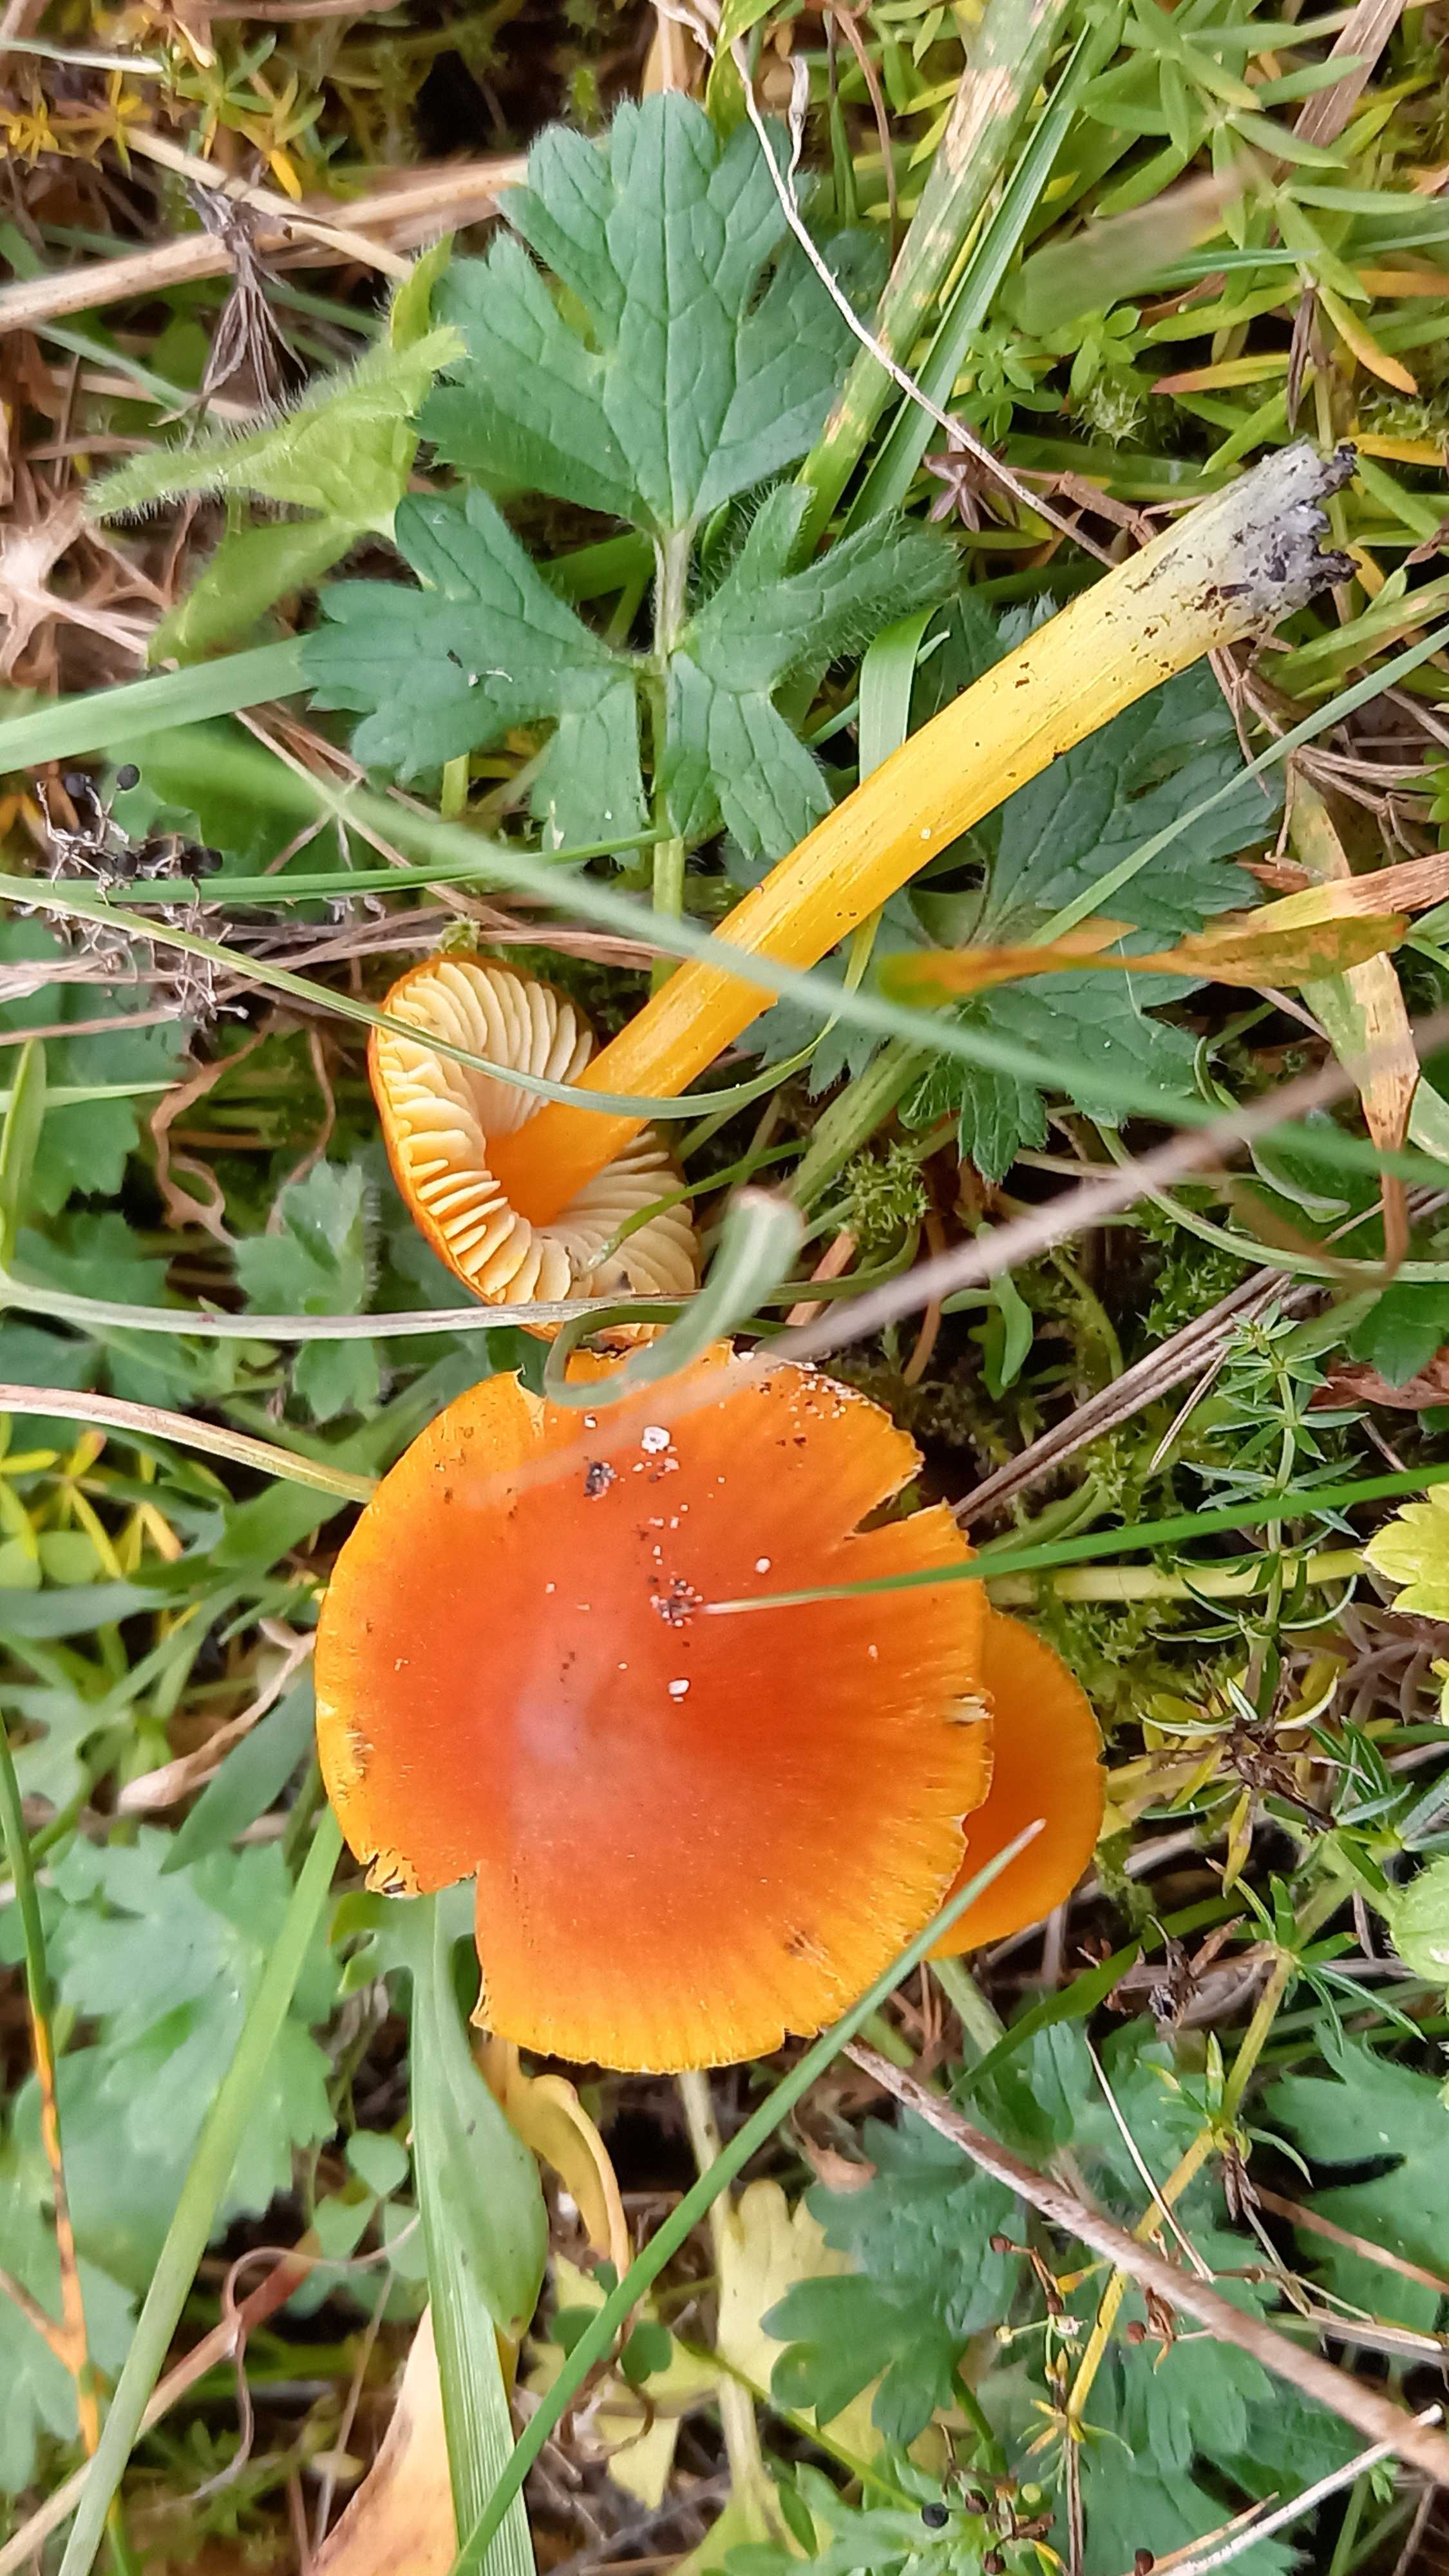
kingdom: Fungi
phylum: Basidiomycota
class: Agaricomycetes
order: Agaricales
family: Hygrophoraceae
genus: Hygrocybe
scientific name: Hygrocybe conica
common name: kegle-vokshat
